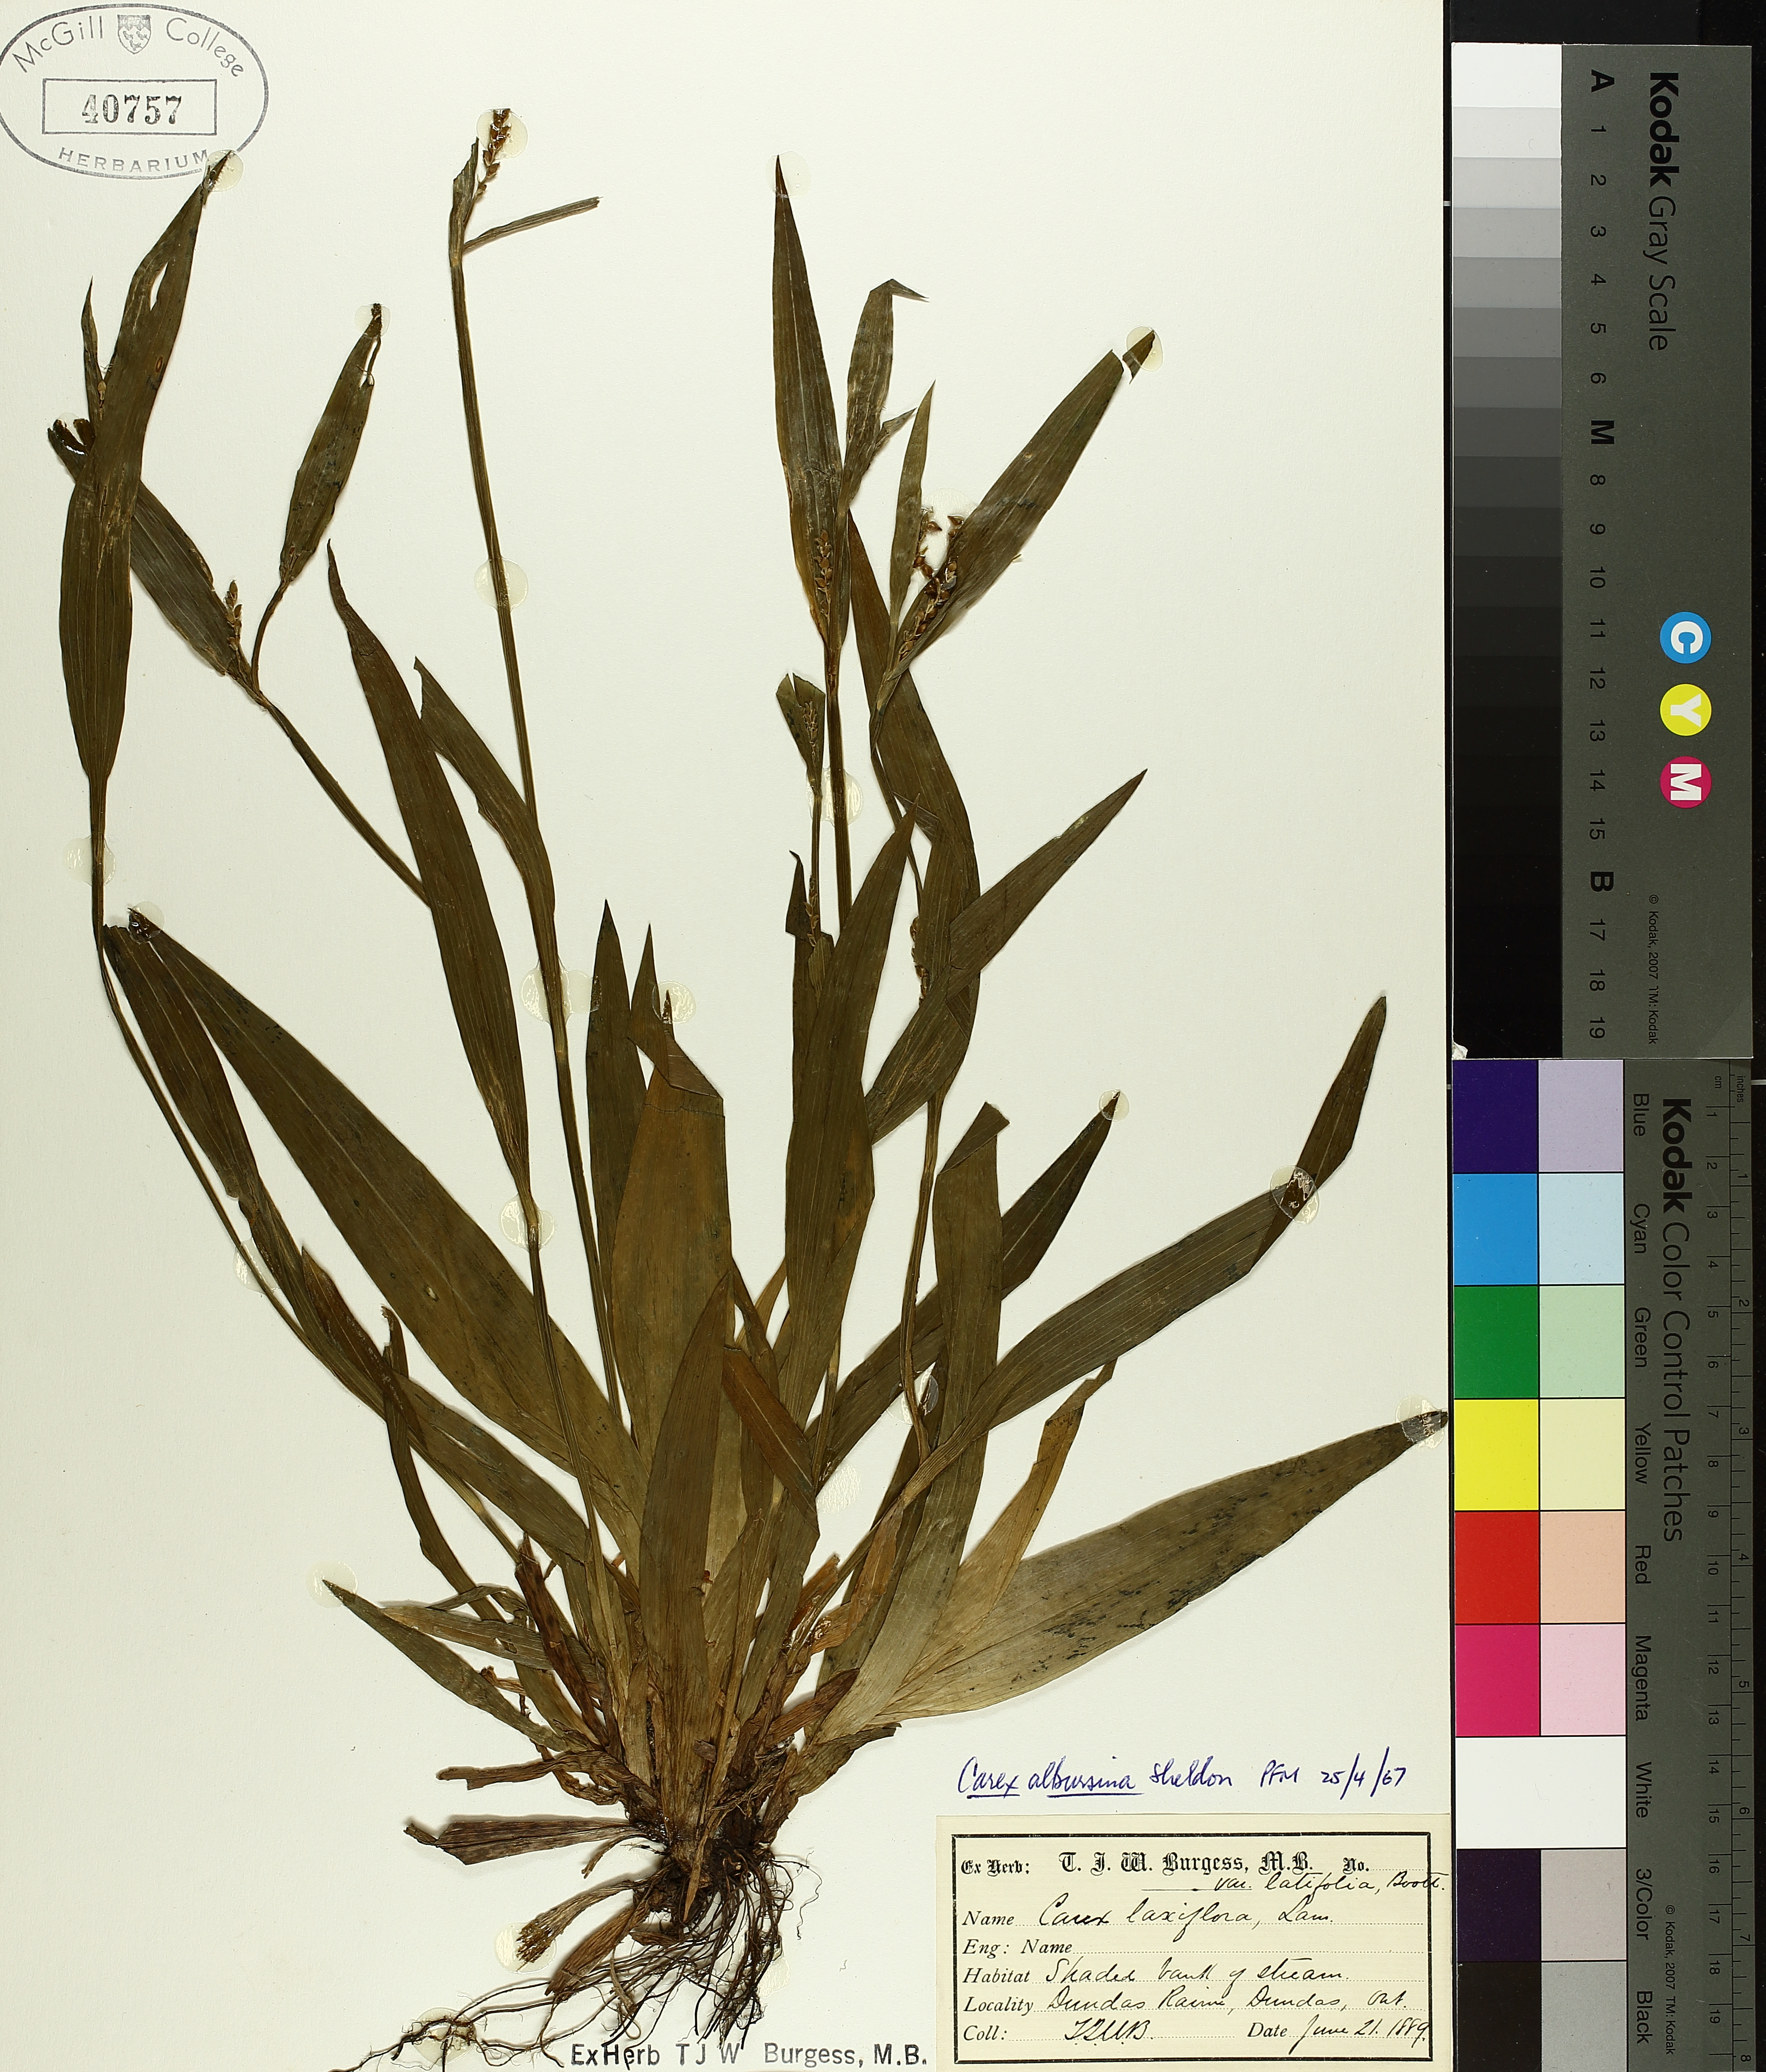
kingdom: Plantae
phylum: Tracheophyta
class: Liliopsida
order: Poales
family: Cyperaceae
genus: Carex
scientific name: Carex albursina
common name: Blunt-scale wood sedge
